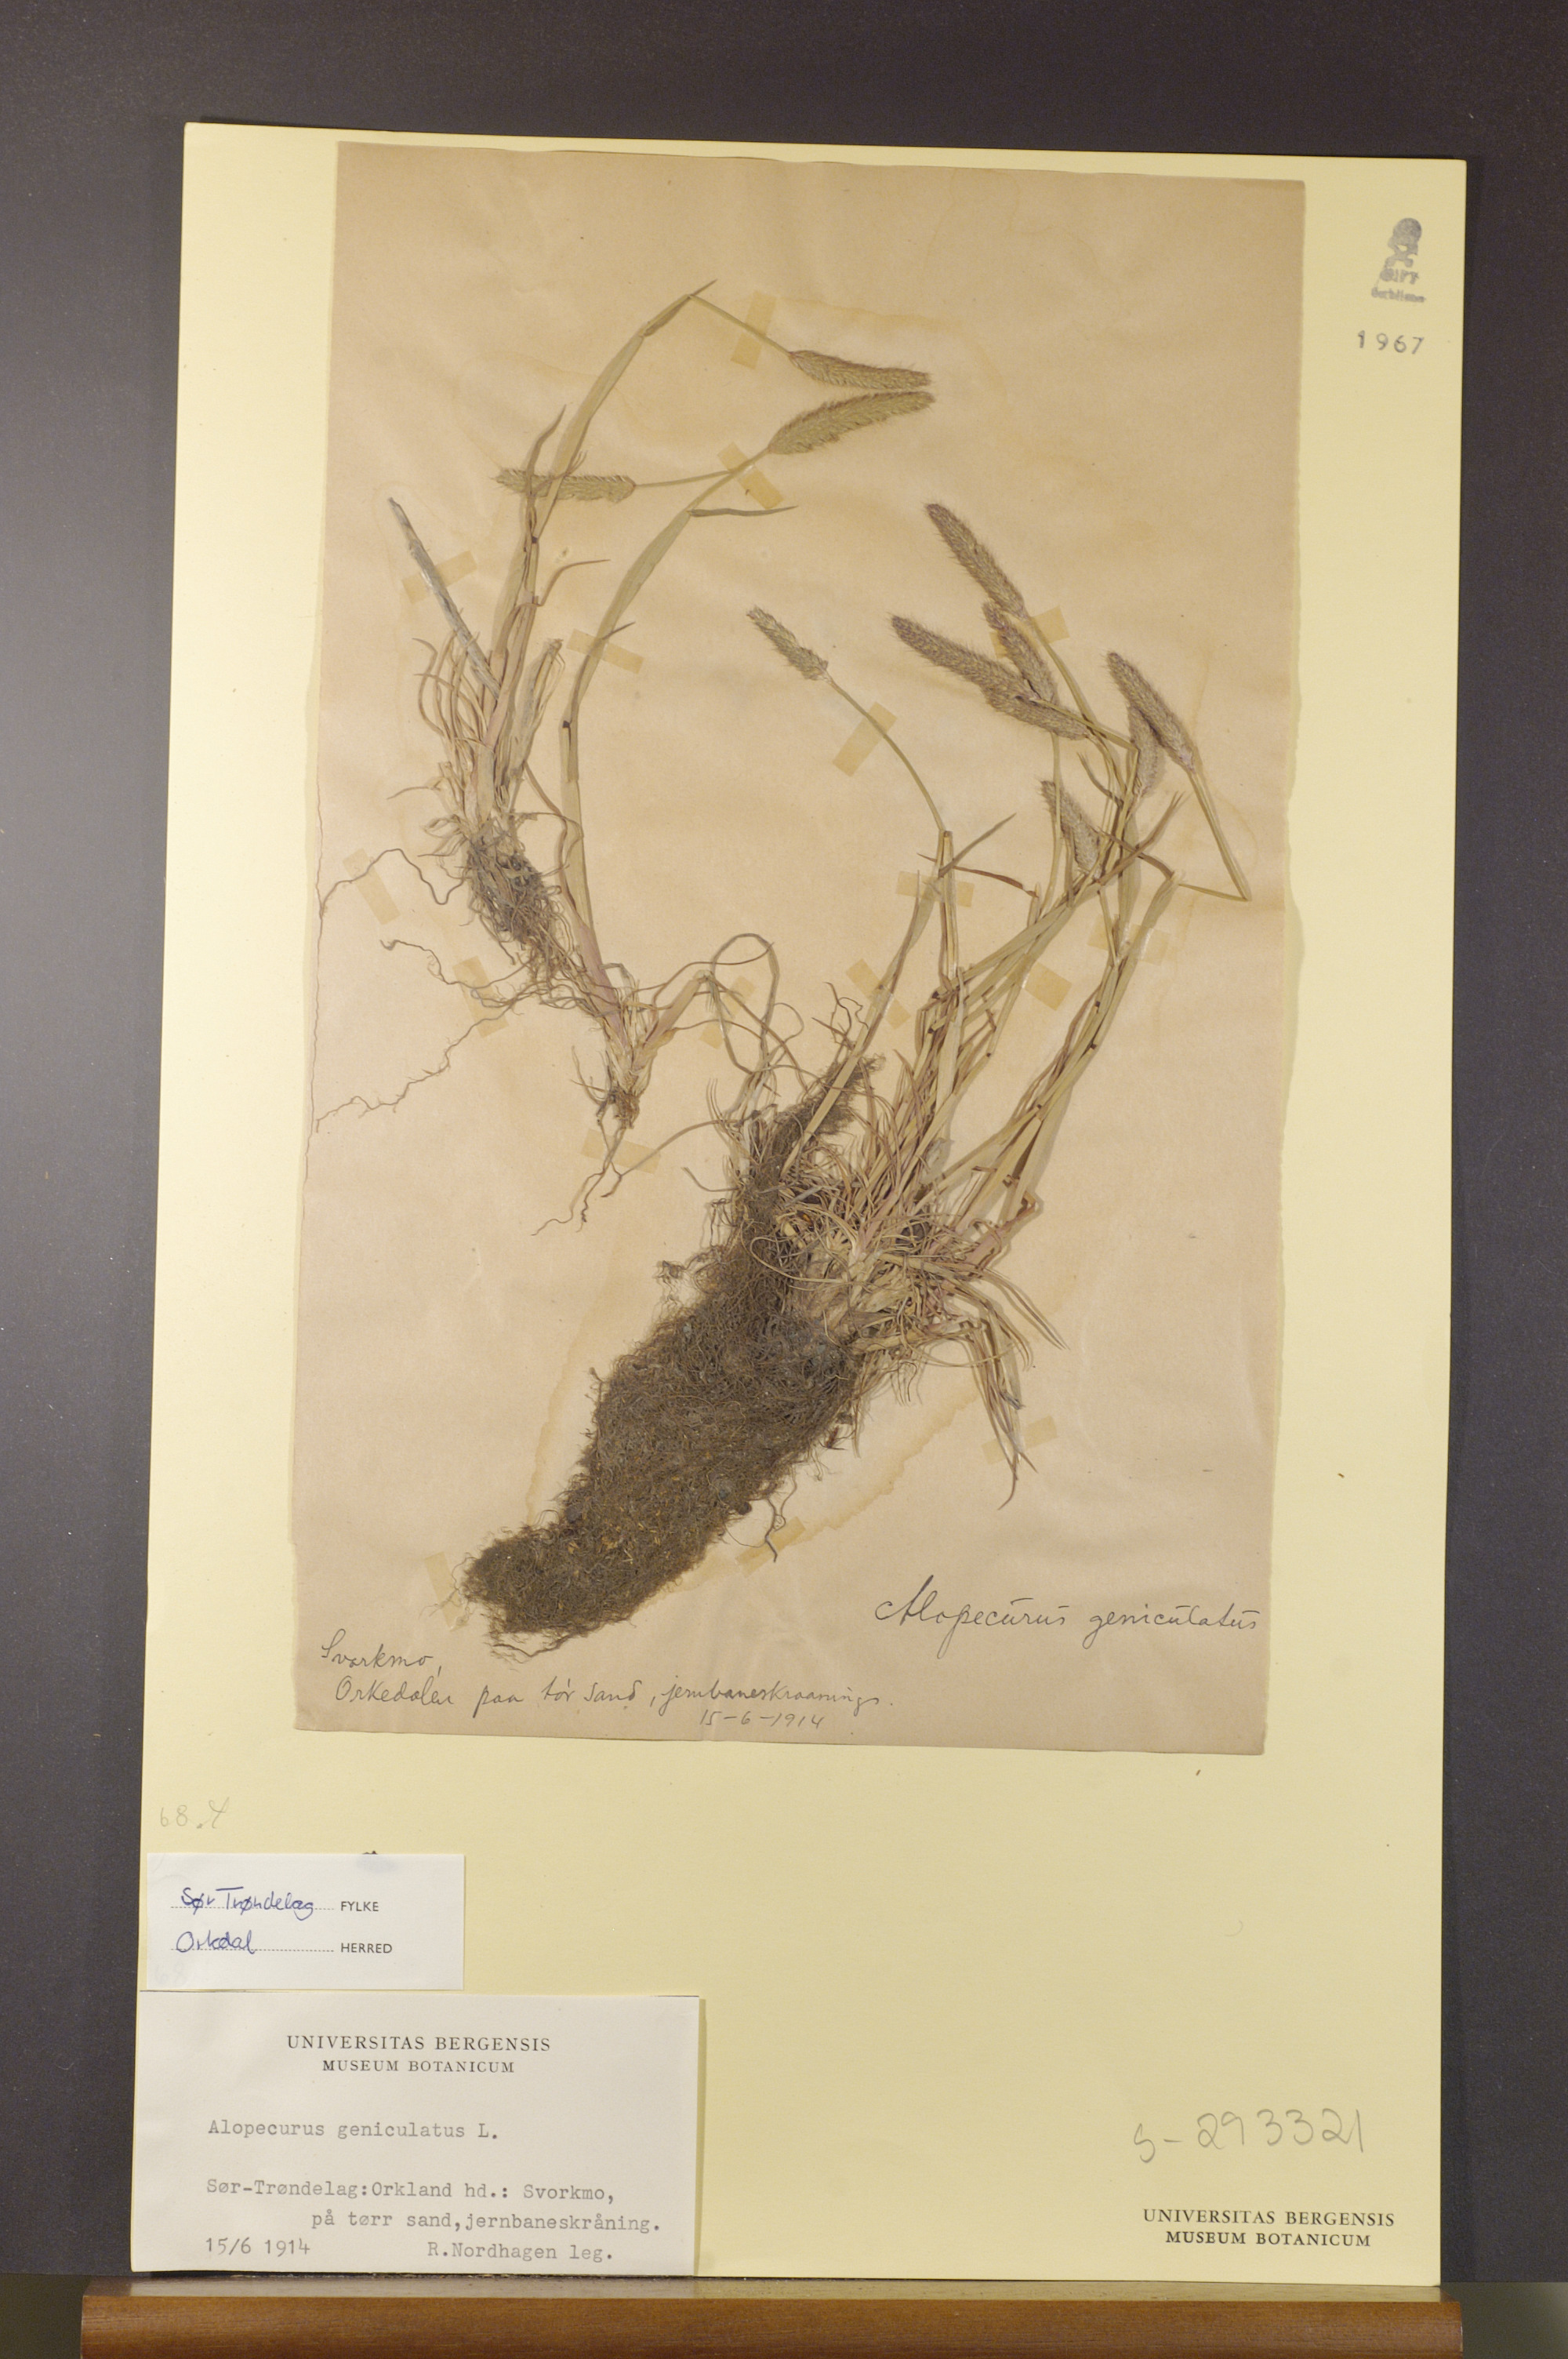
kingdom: Plantae
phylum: Tracheophyta
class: Liliopsida
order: Poales
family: Poaceae
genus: Alopecurus
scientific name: Alopecurus geniculatus
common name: Water foxtail
